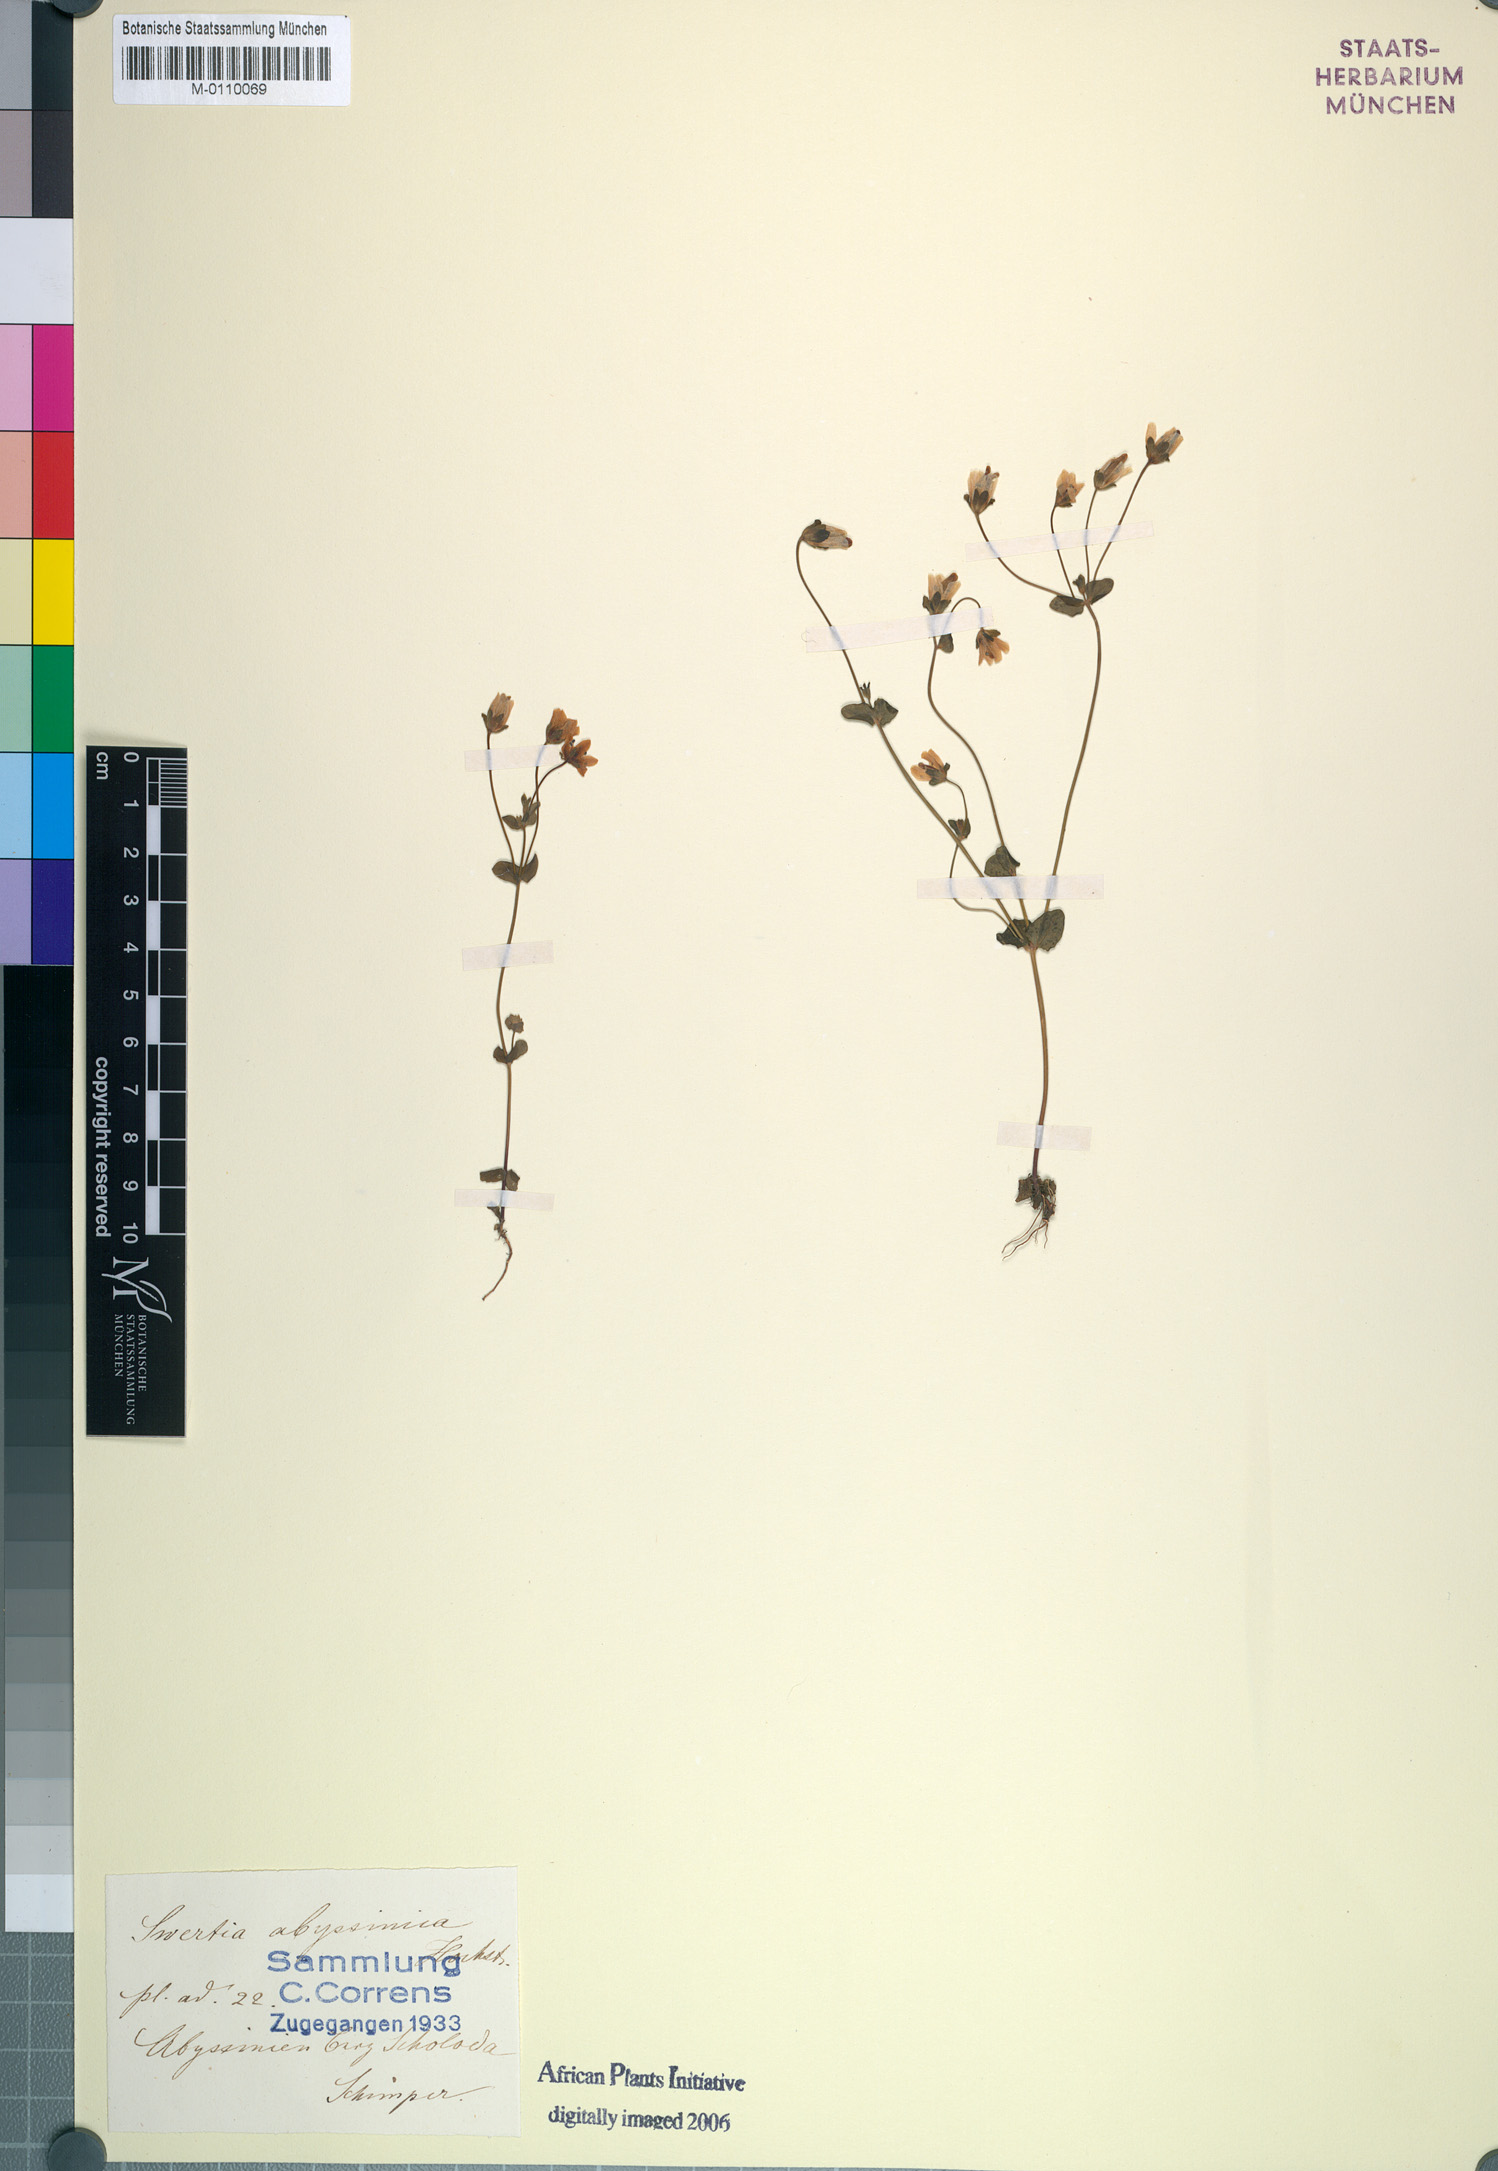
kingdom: Plantae
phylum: Tracheophyta
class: Magnoliopsida
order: Gentianales
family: Gentianaceae
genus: Swertia
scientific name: Swertia abyssinica
